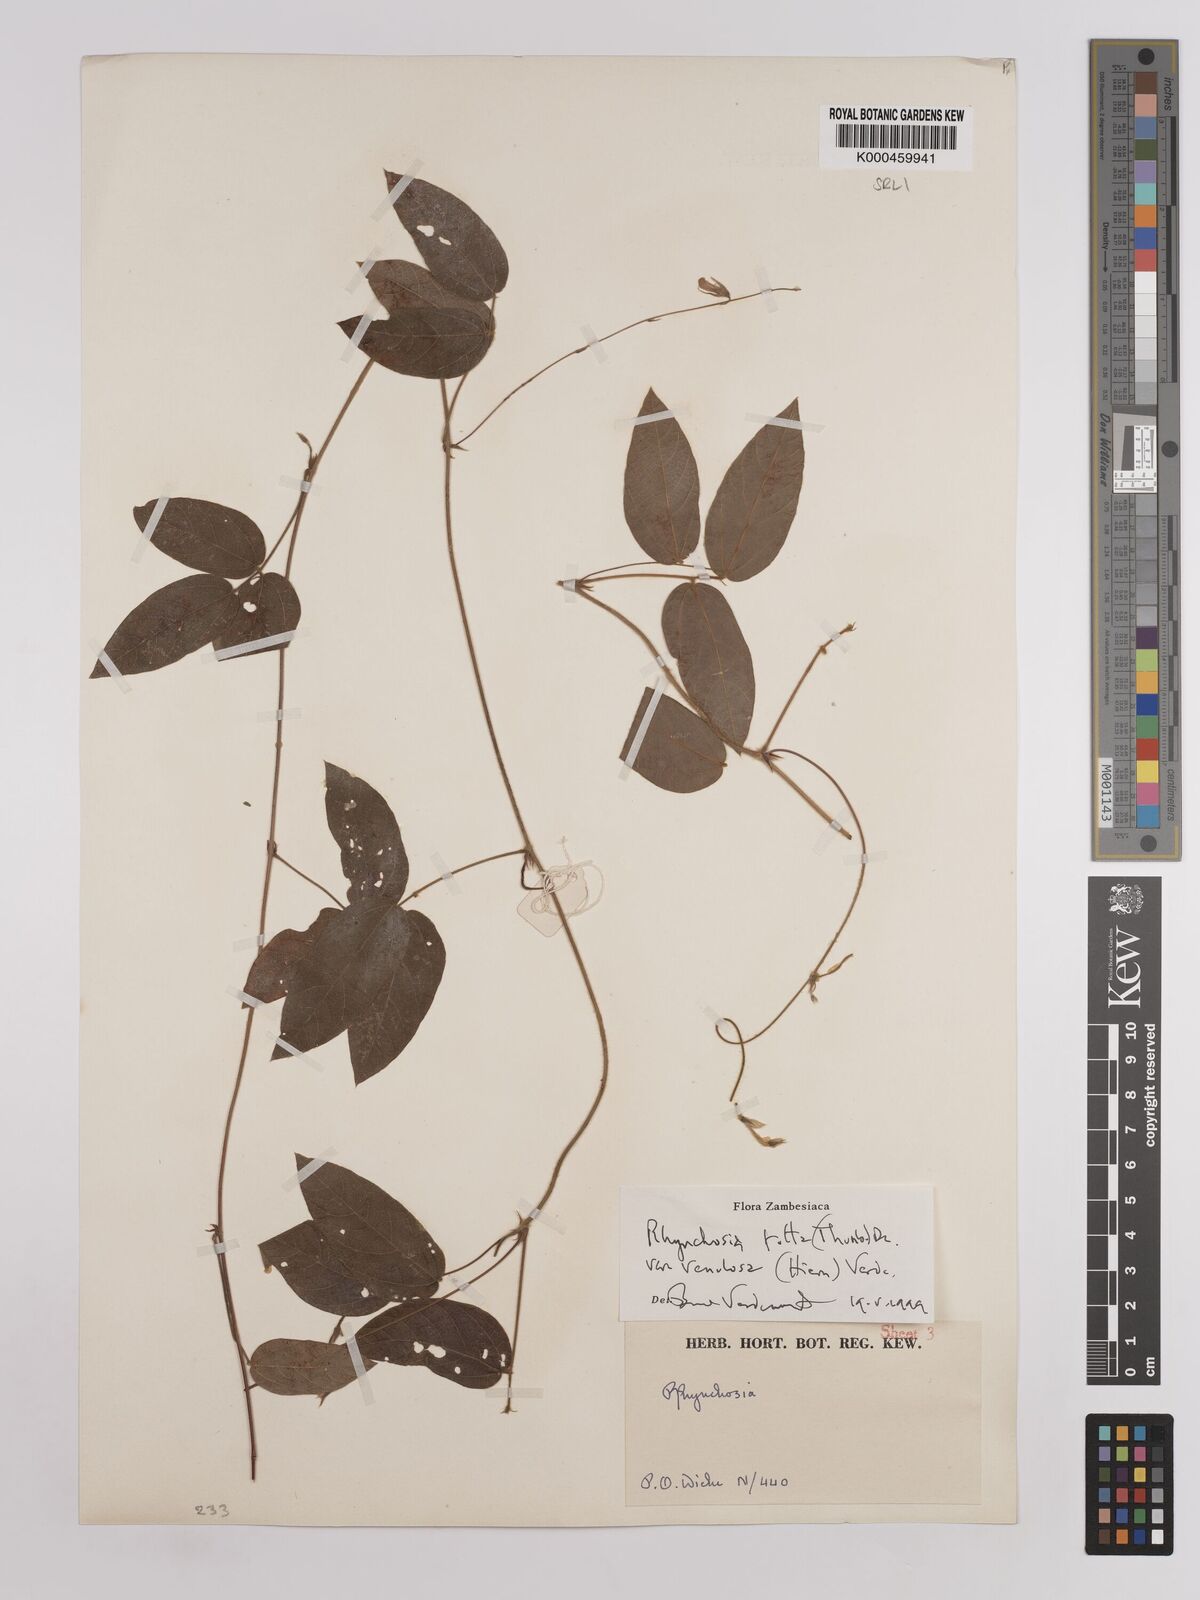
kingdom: Plantae
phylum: Tracheophyta
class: Magnoliopsida
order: Fabales
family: Fabaceae
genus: Rhynchosia
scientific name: Rhynchosia totta
